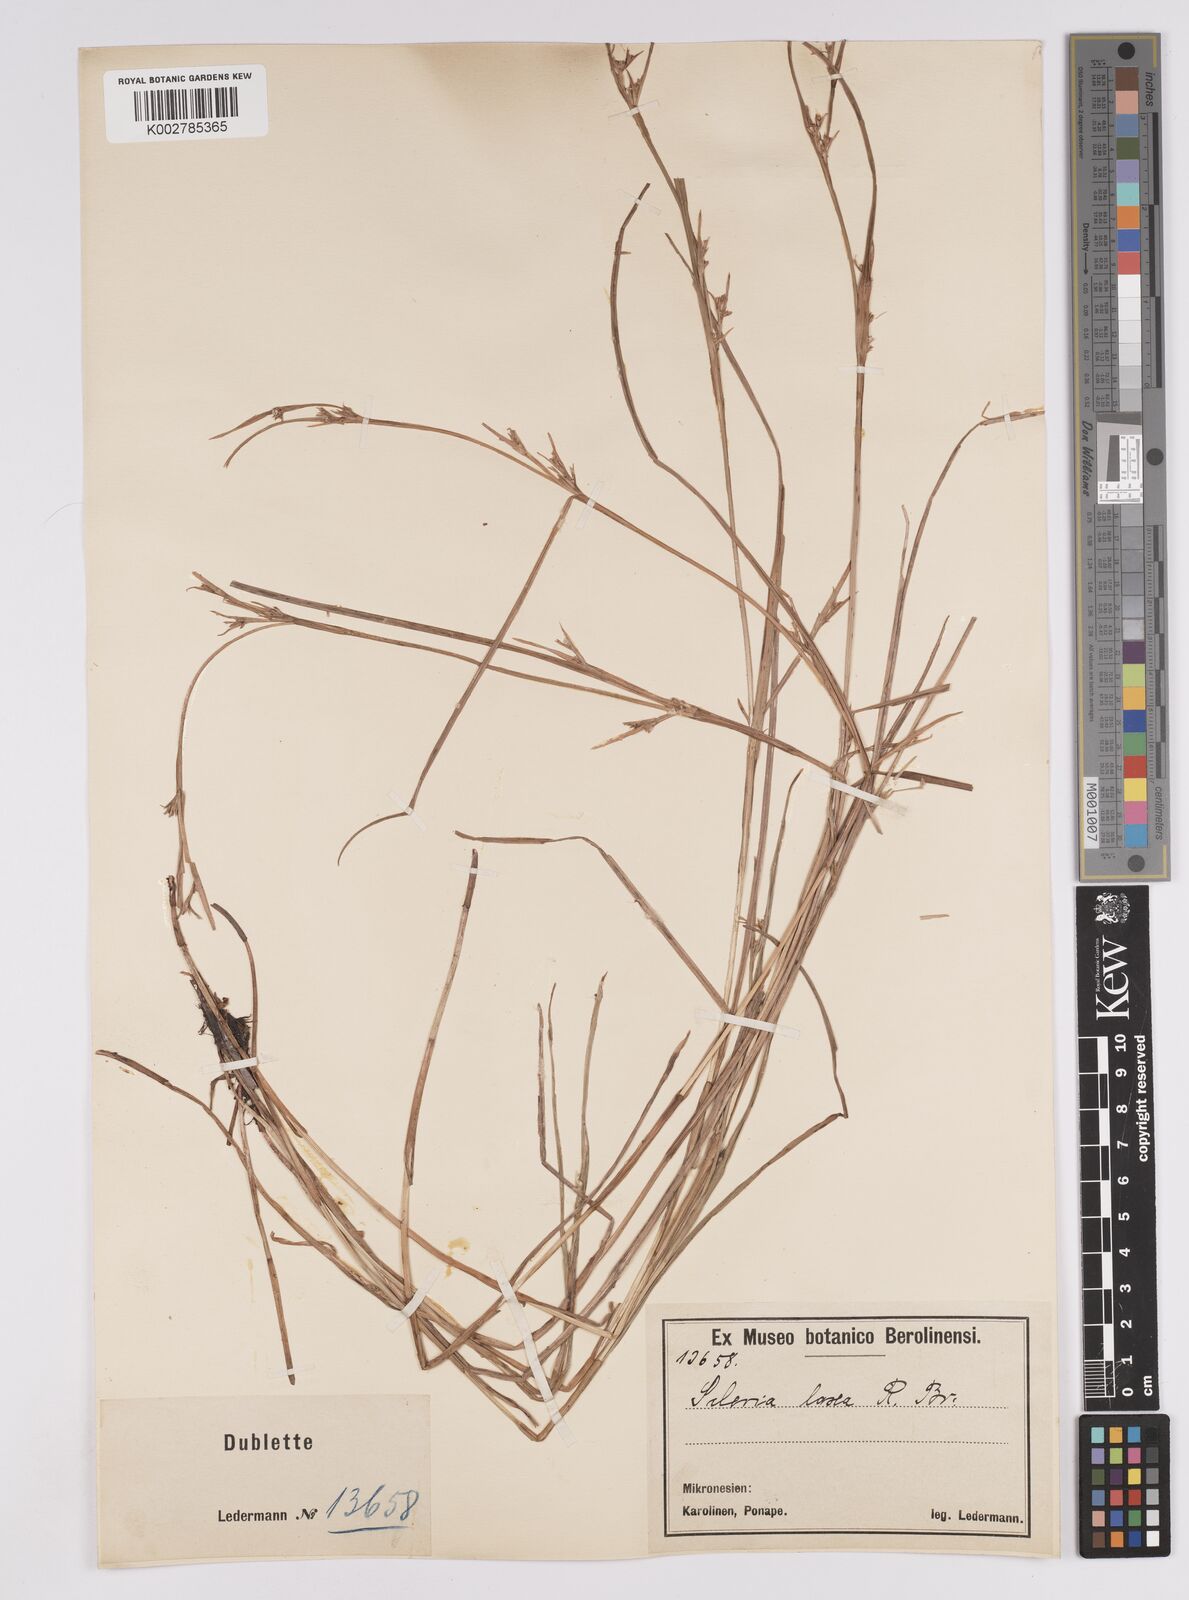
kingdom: Plantae
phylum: Tracheophyta
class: Liliopsida
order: Poales
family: Cyperaceae
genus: Scleria
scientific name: Scleria laxa
